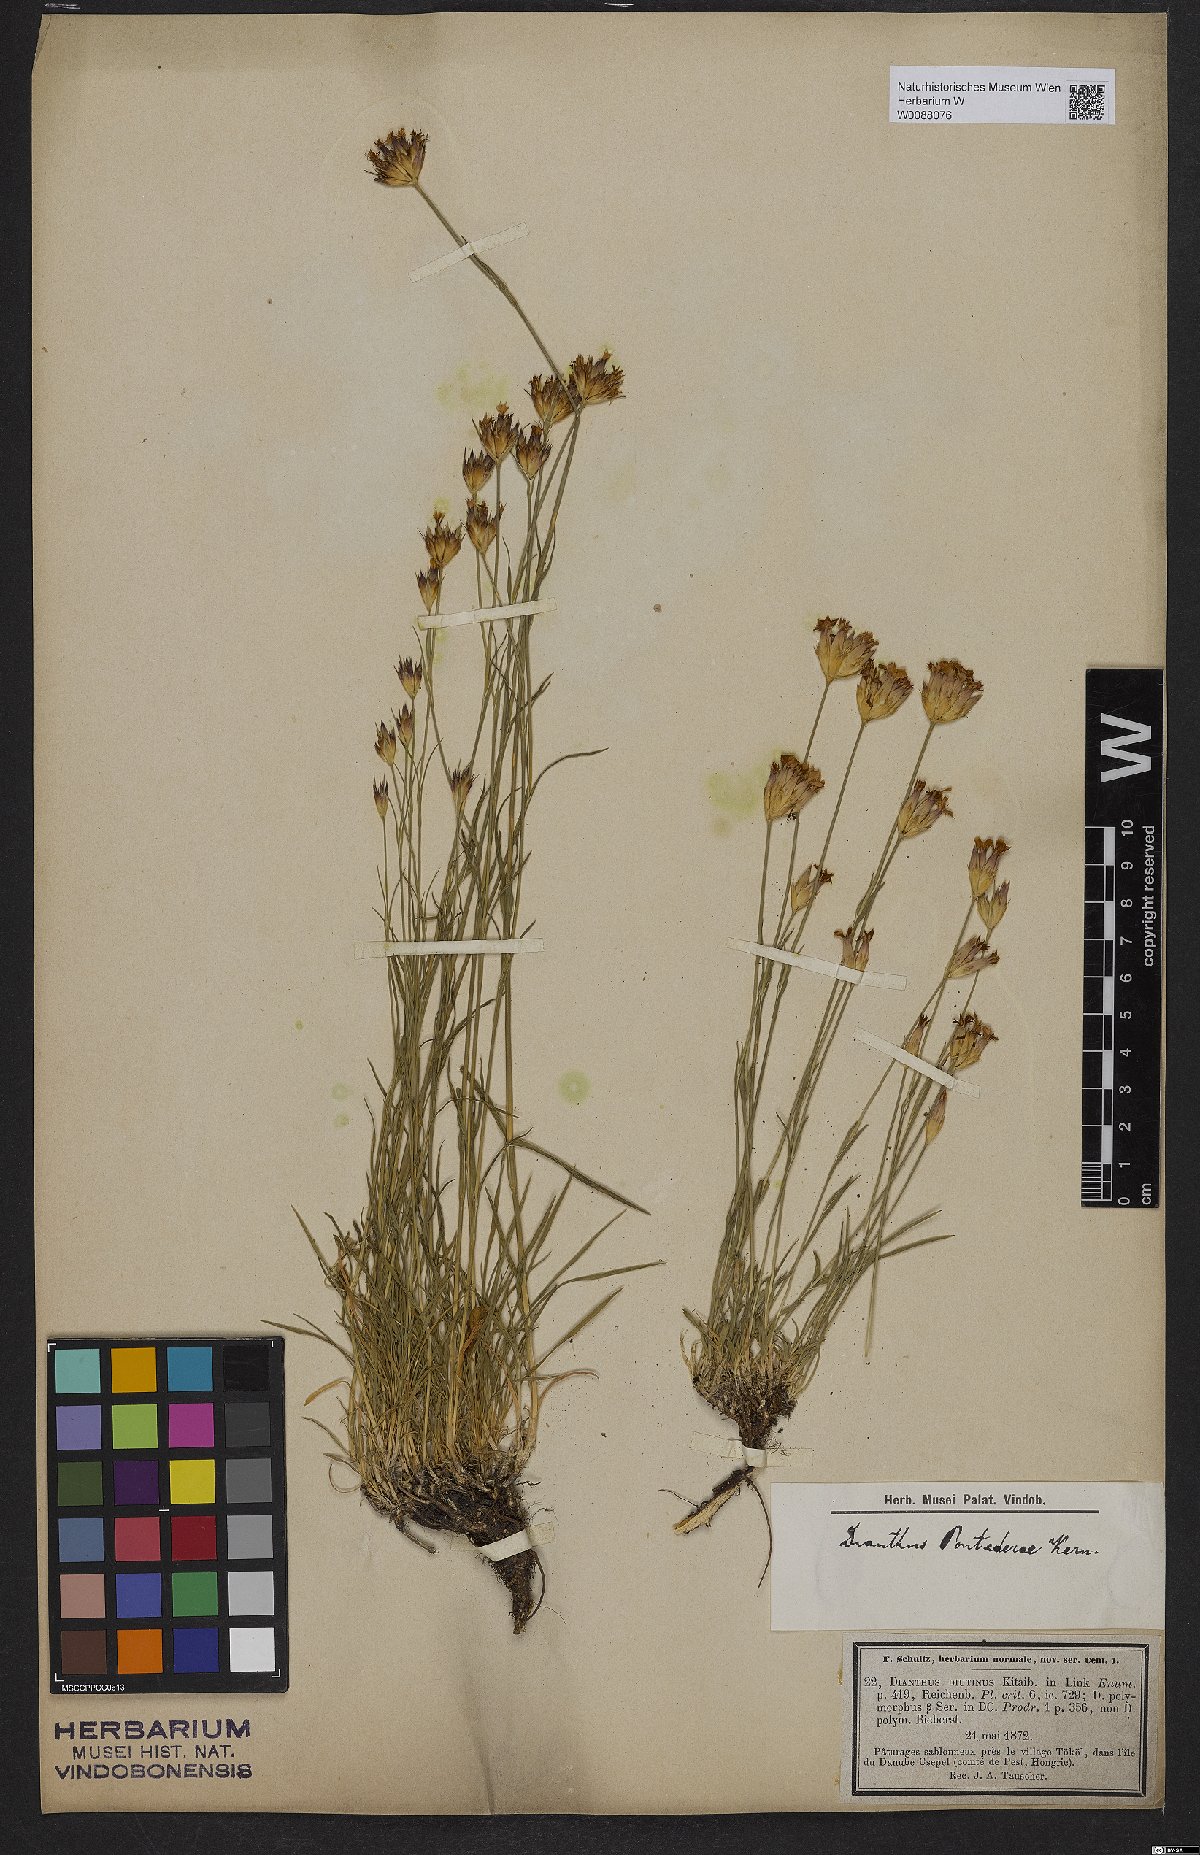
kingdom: Plantae
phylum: Tracheophyta
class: Magnoliopsida
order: Caryophyllales
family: Caryophyllaceae
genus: Dianthus
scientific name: Dianthus pontederae
